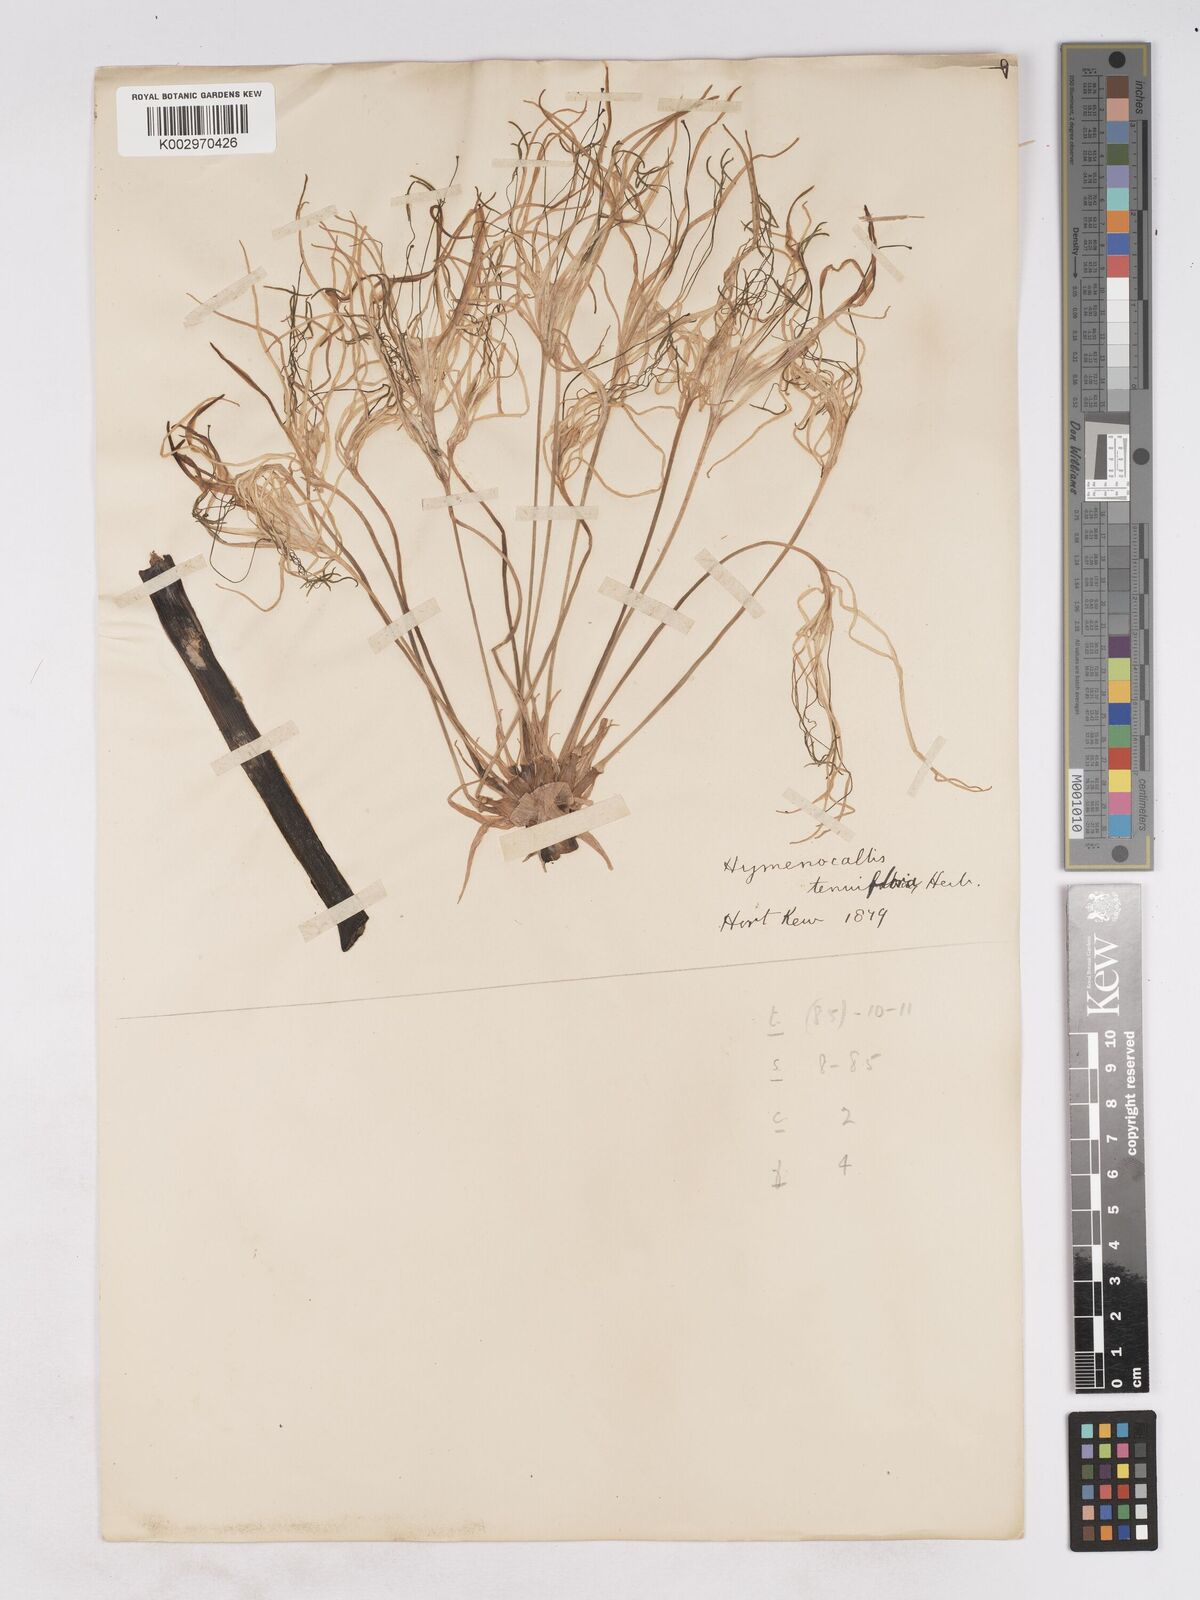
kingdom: Plantae
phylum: Tracheophyta
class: Liliopsida
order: Asparagales
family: Amaryllidaceae
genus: Hymenocallis
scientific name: Hymenocallis littoralis
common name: Beach spiderlily
